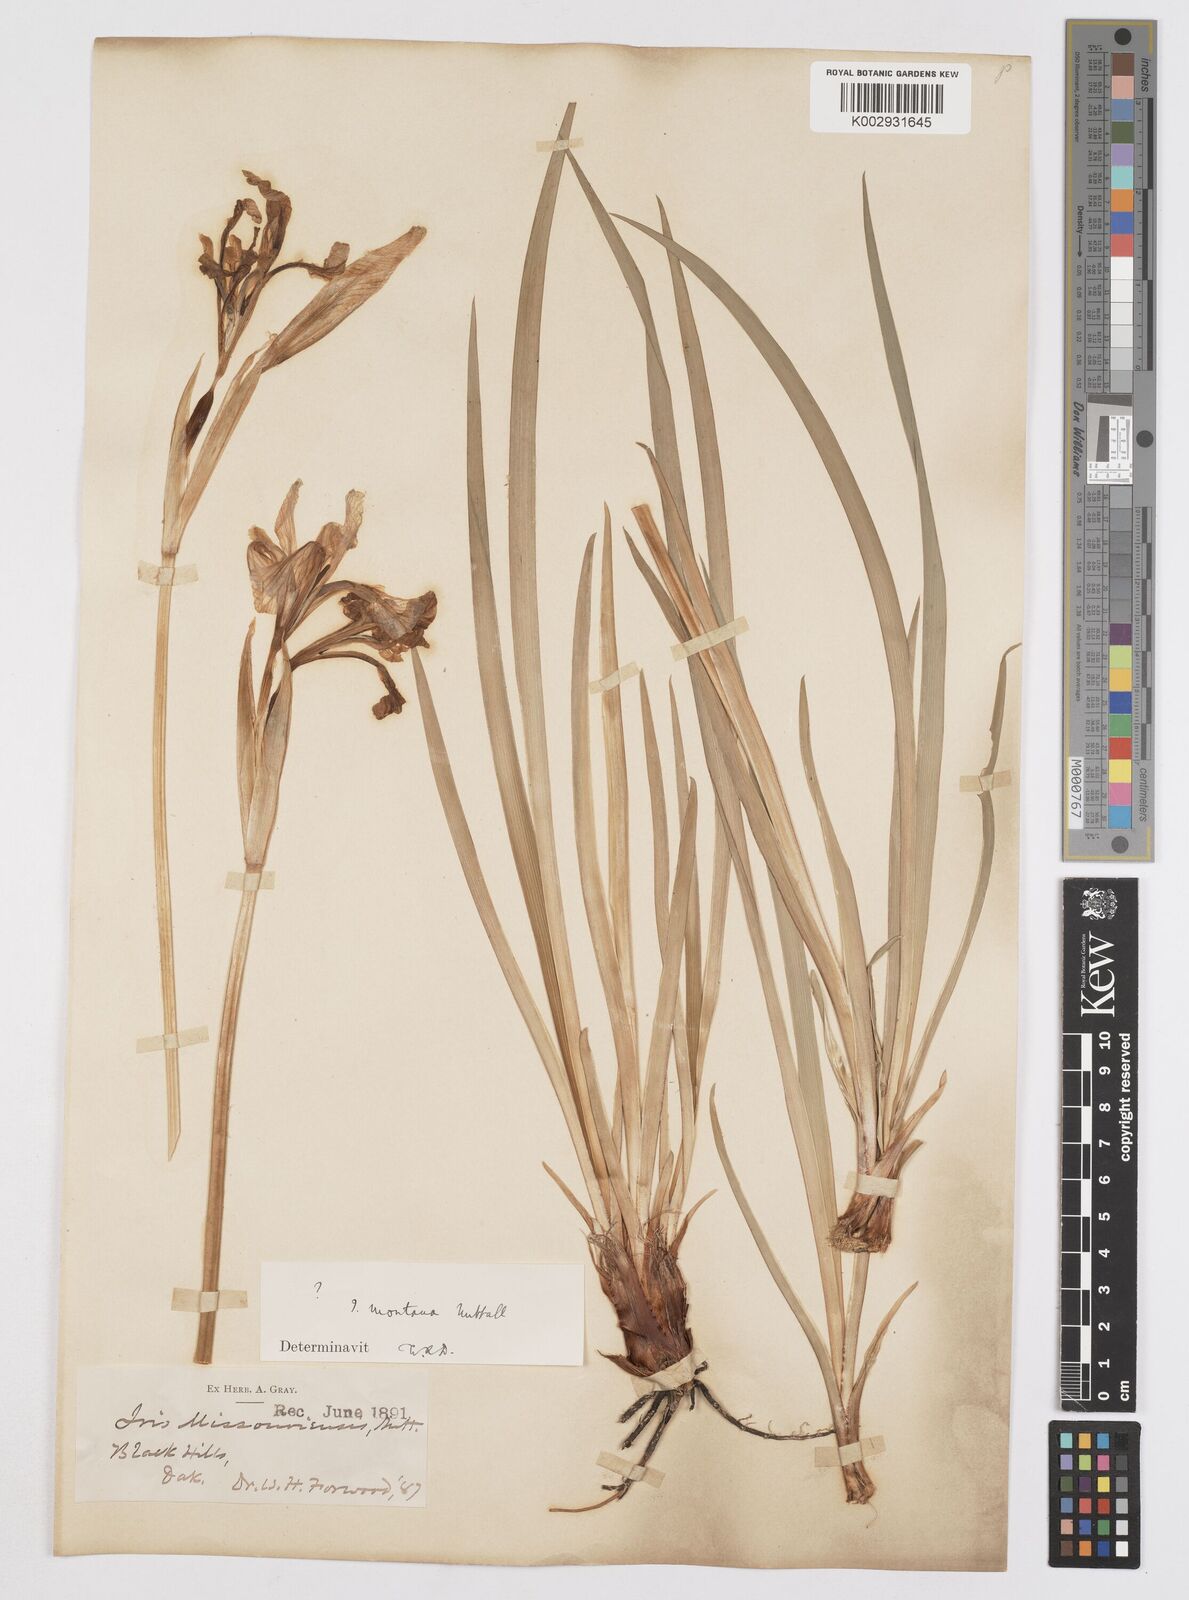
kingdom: Plantae
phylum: Tracheophyta
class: Liliopsida
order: Asparagales
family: Iridaceae
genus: Iris
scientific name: Iris missouriensis
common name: Rocky mountain iris
